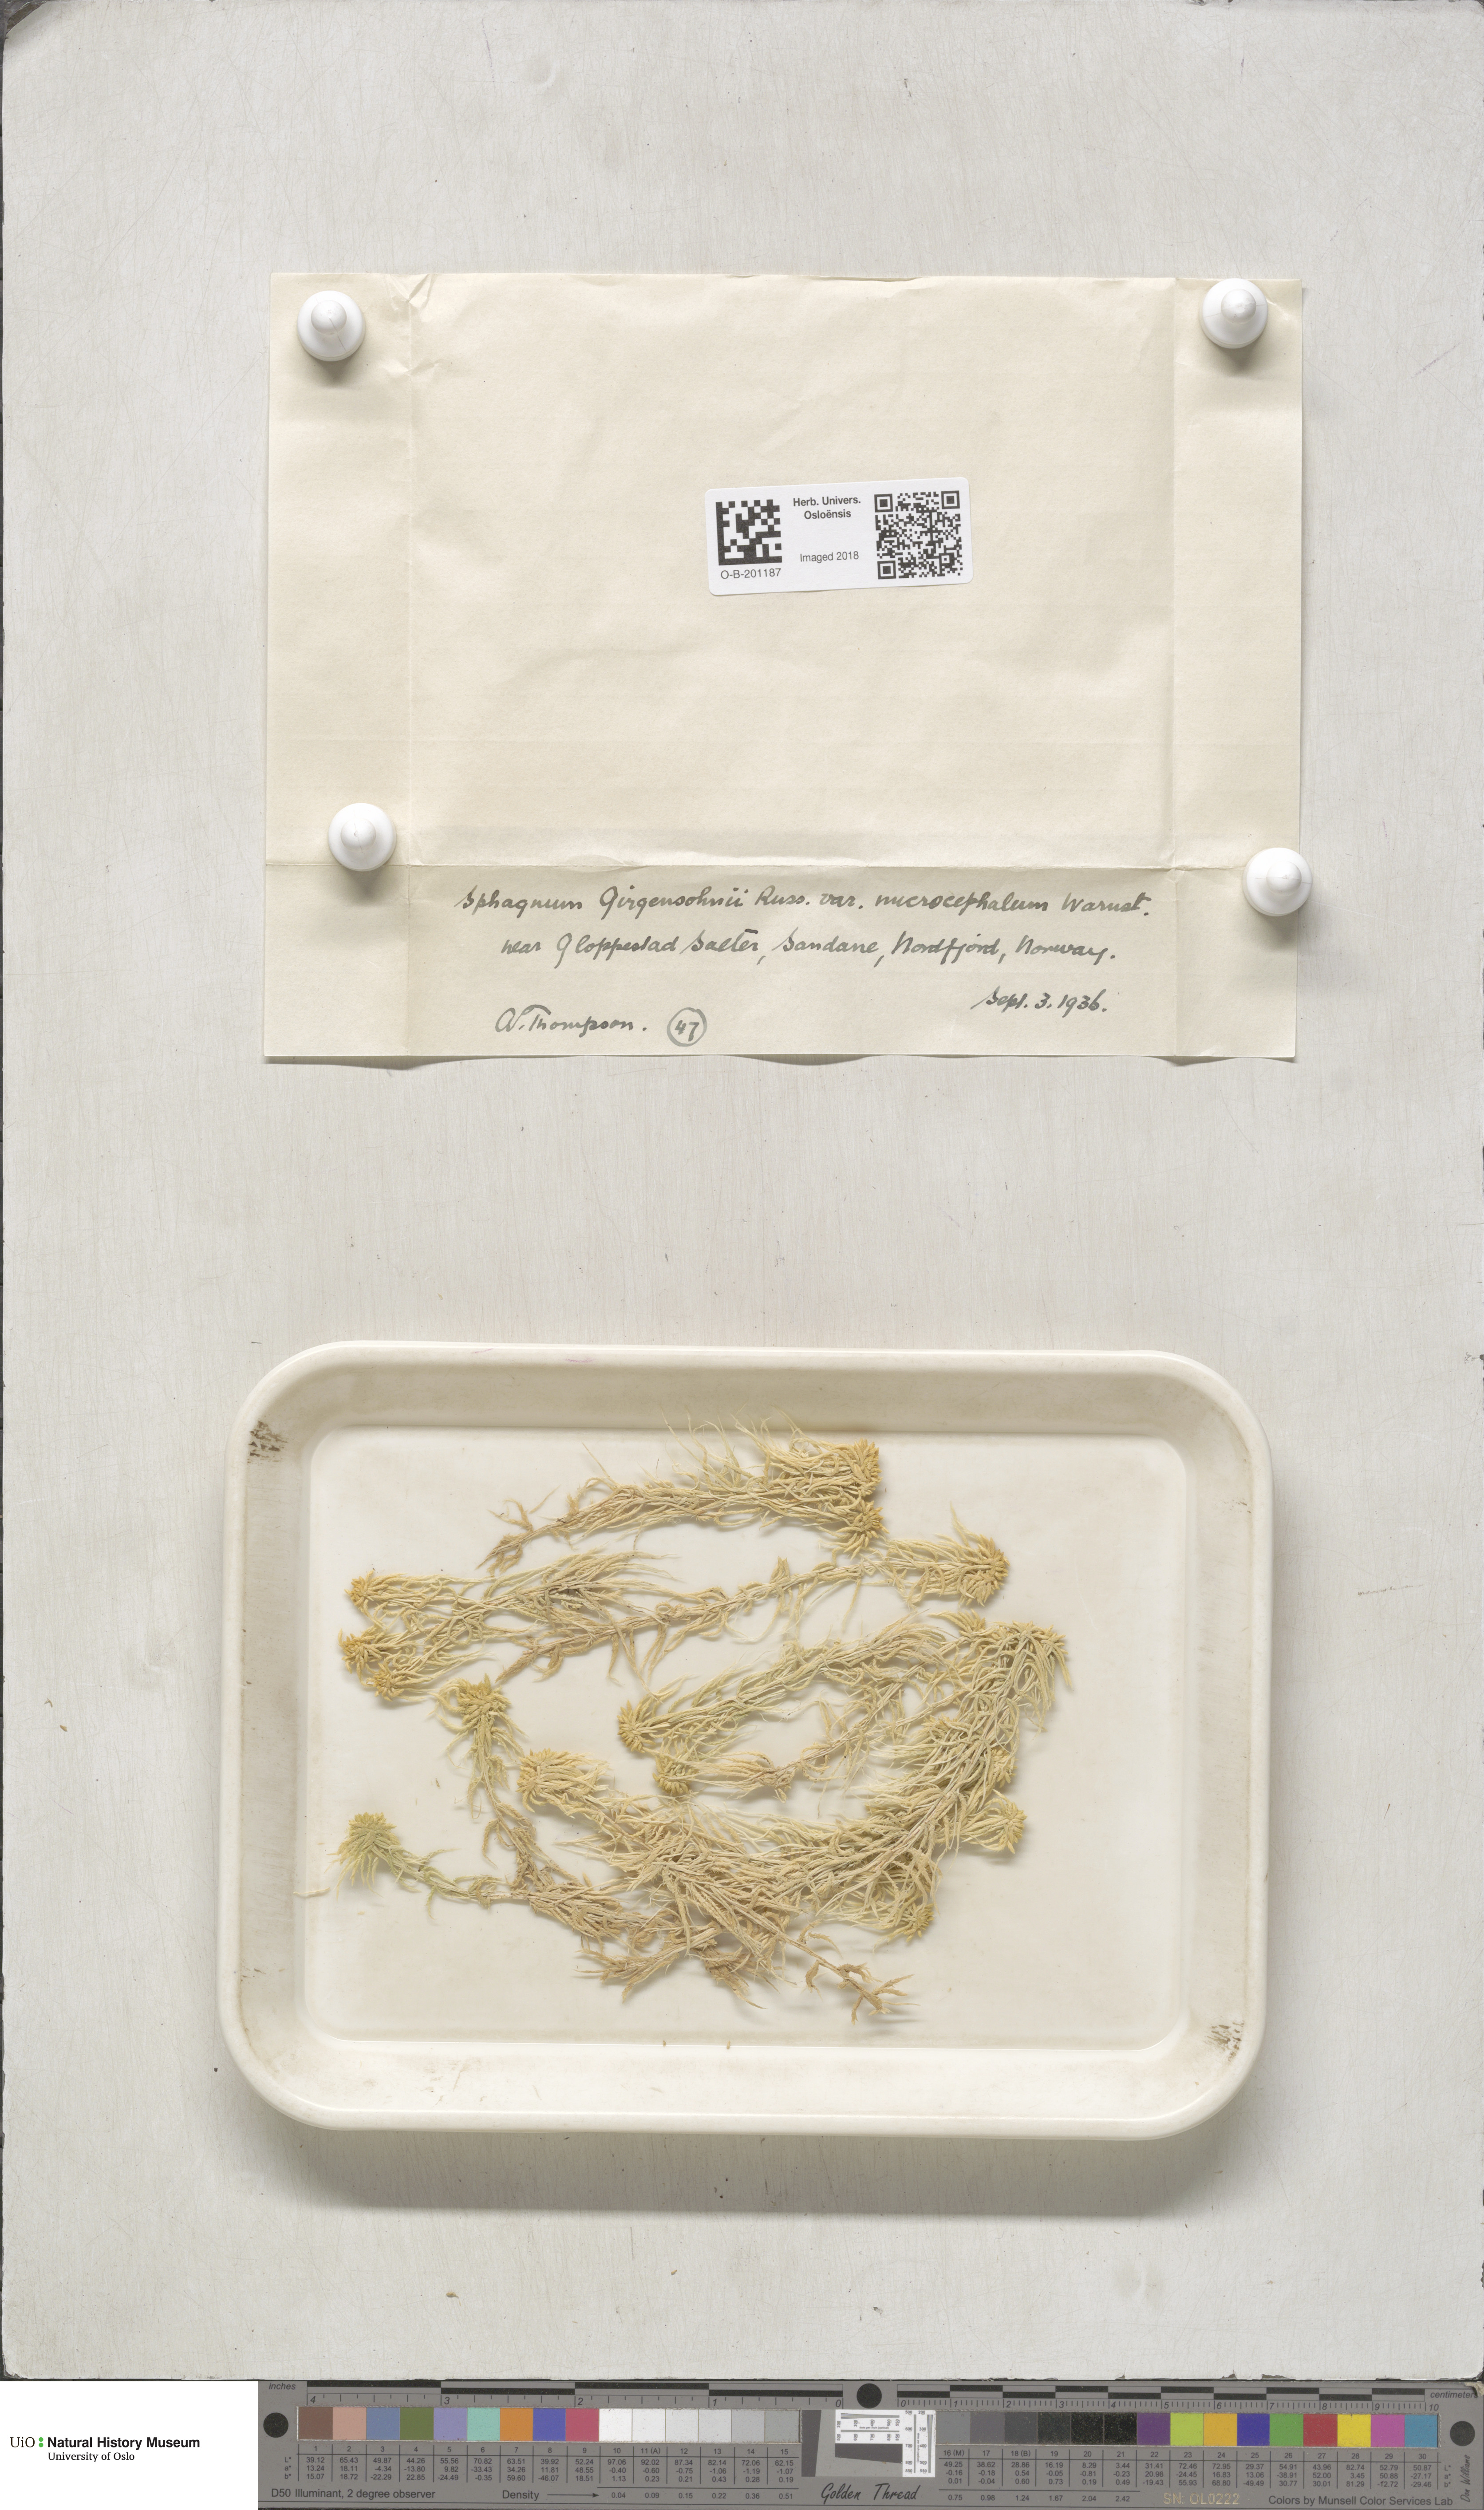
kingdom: Plantae
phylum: Bryophyta
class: Sphagnopsida
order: Sphagnales
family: Sphagnaceae
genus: Sphagnum
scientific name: Sphagnum girgensohnii
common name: Girgensohn's peat moss
